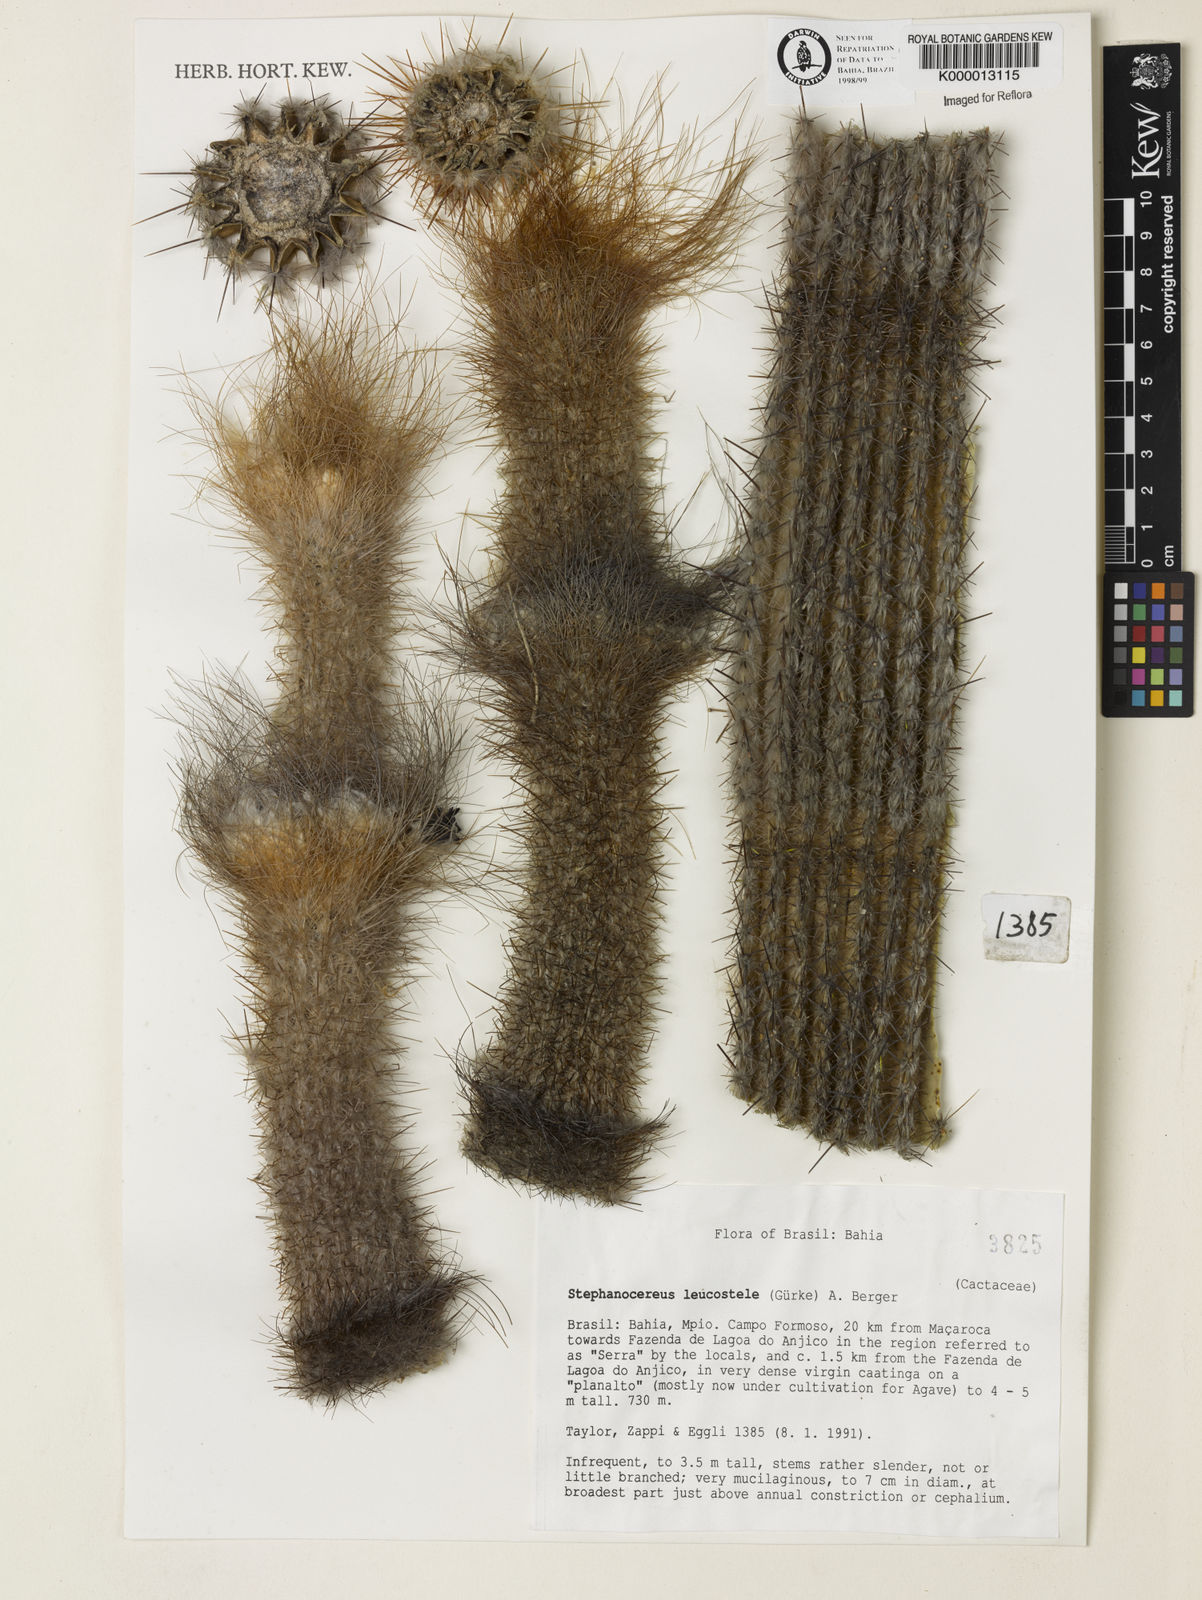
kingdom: Plantae
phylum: Tracheophyta
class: Magnoliopsida
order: Caryophyllales
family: Cactaceae
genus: Arrojadoa
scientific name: Arrojadoa leucostele
